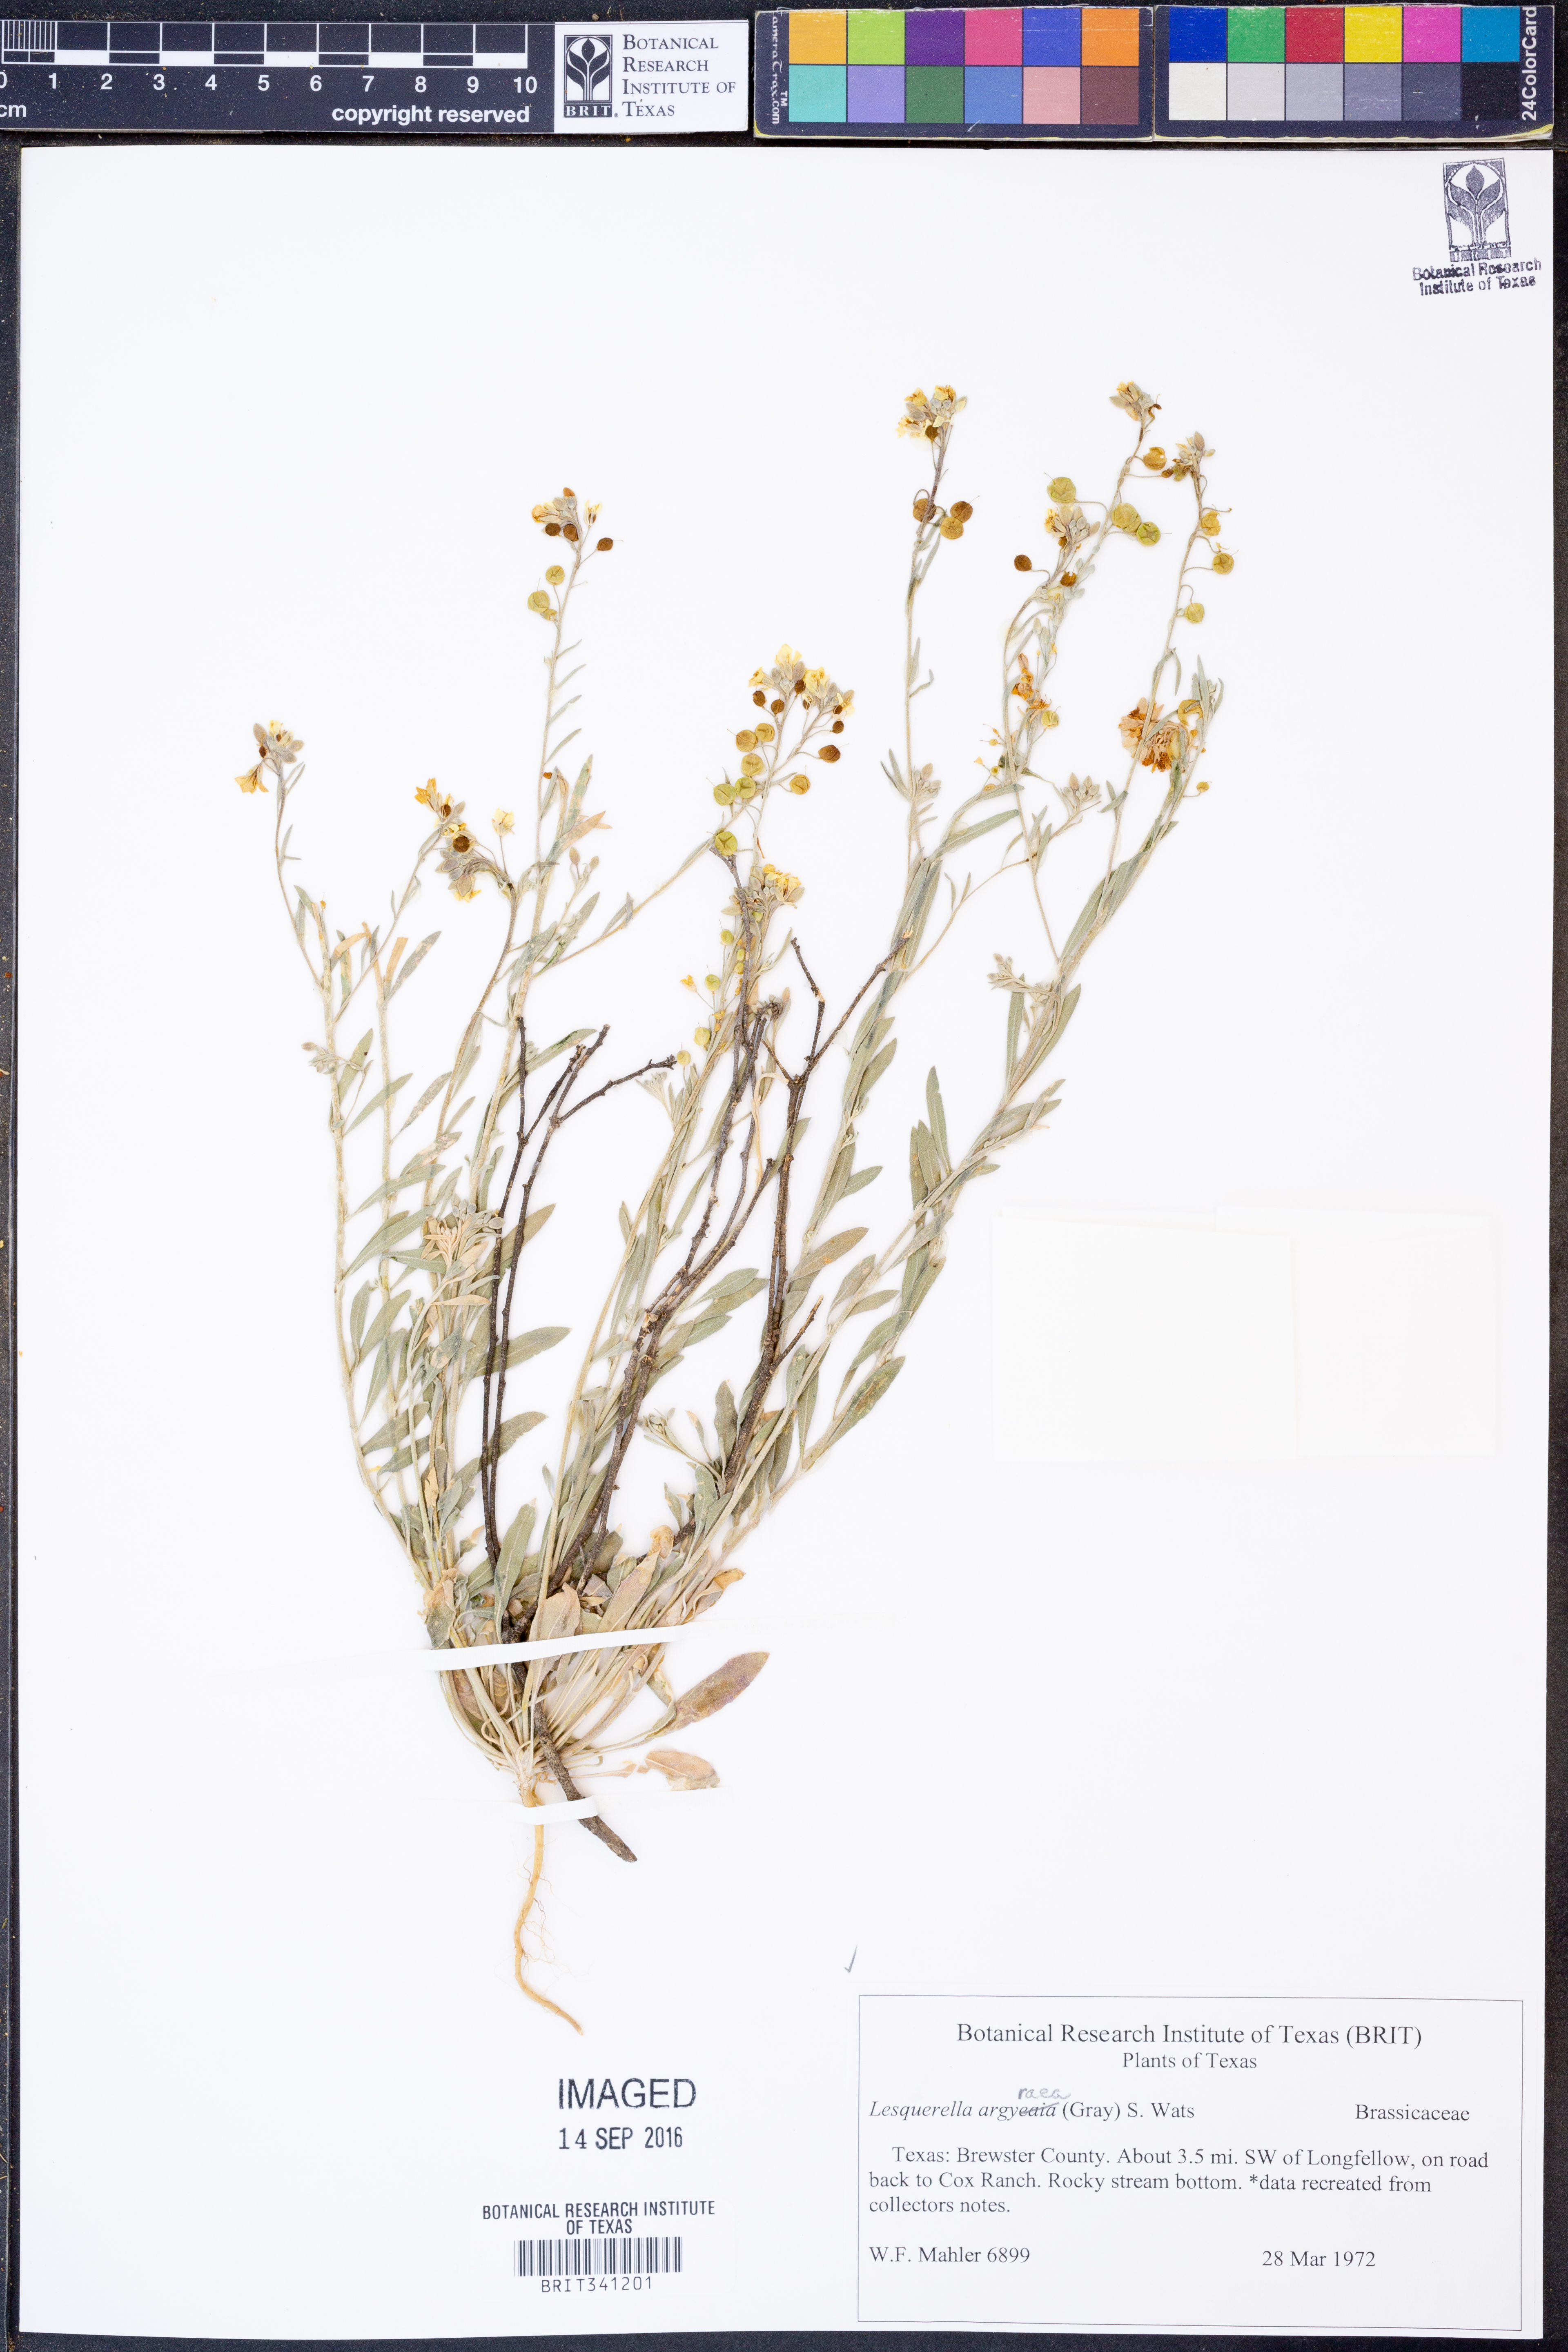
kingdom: Plantae
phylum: Tracheophyta
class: Magnoliopsida
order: Brassicales
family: Brassicaceae
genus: Physaria
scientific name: Physaria argyraea
